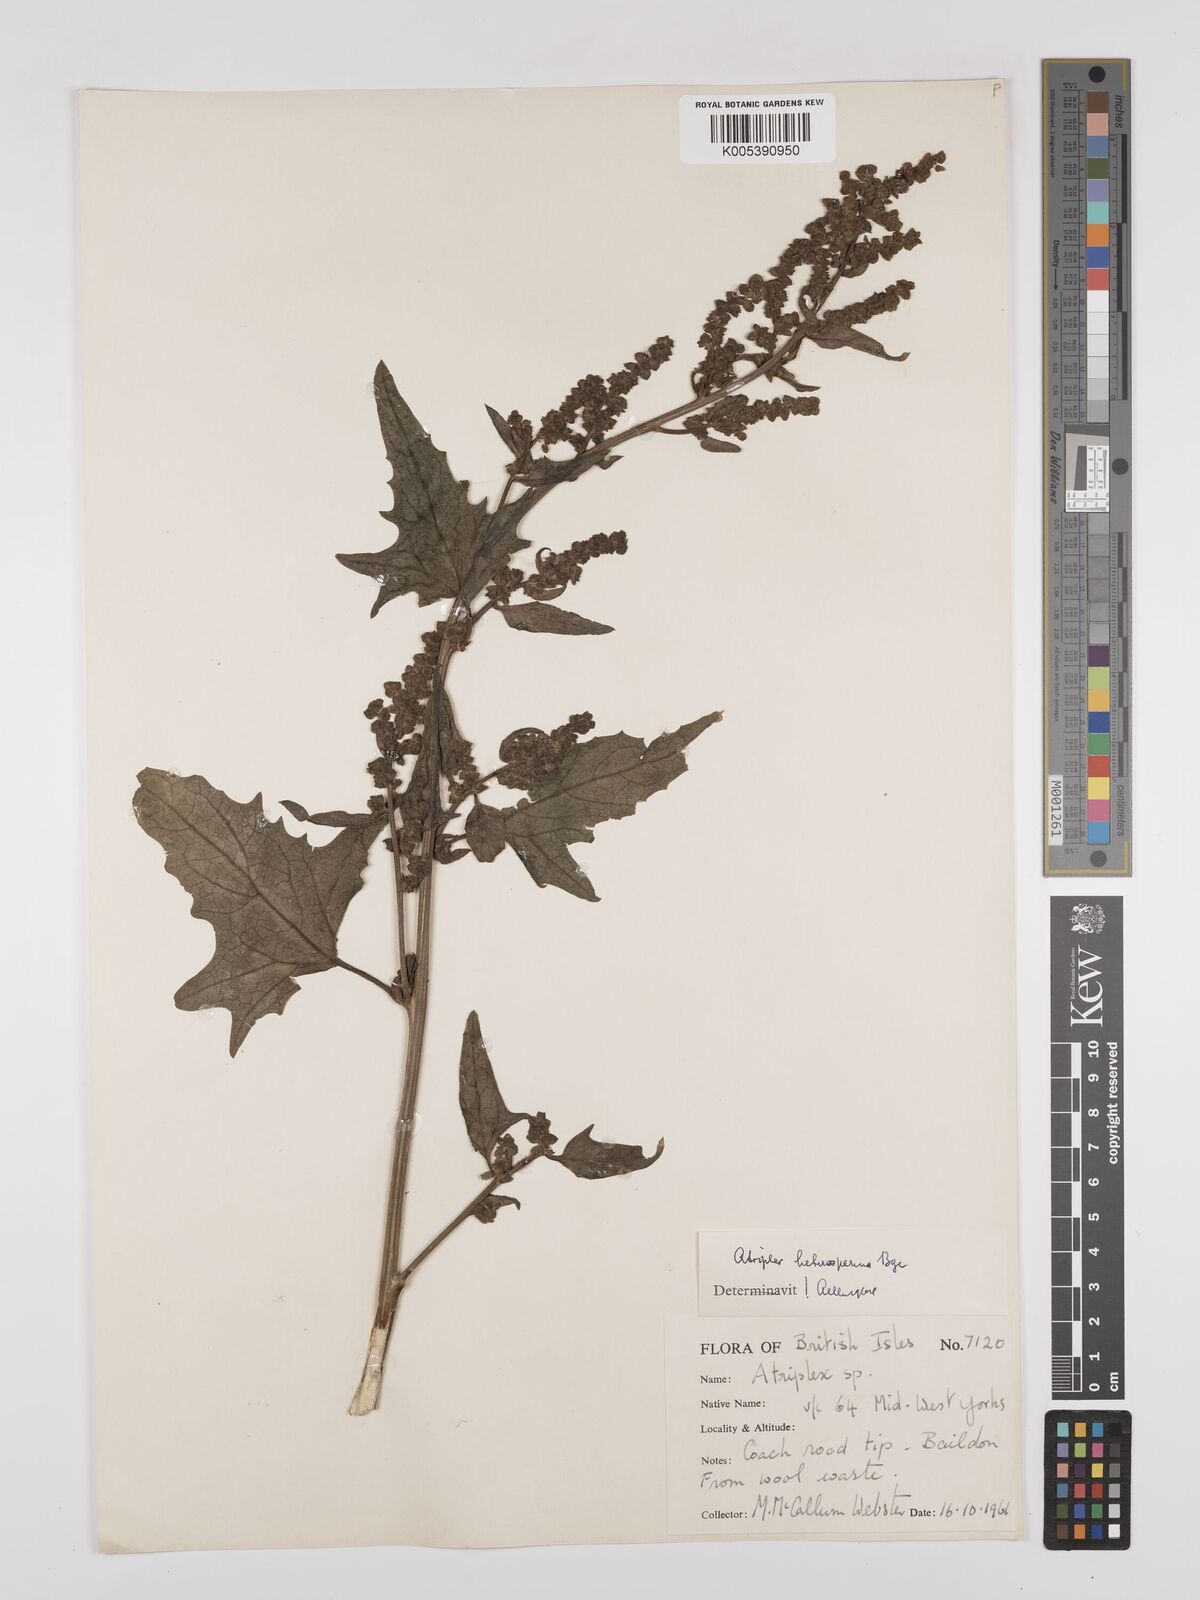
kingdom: Plantae
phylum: Tracheophyta
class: Magnoliopsida
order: Caryophyllales
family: Amaranthaceae
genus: Atriplex
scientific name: Atriplex micrantha
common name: Twoscale saltbush
